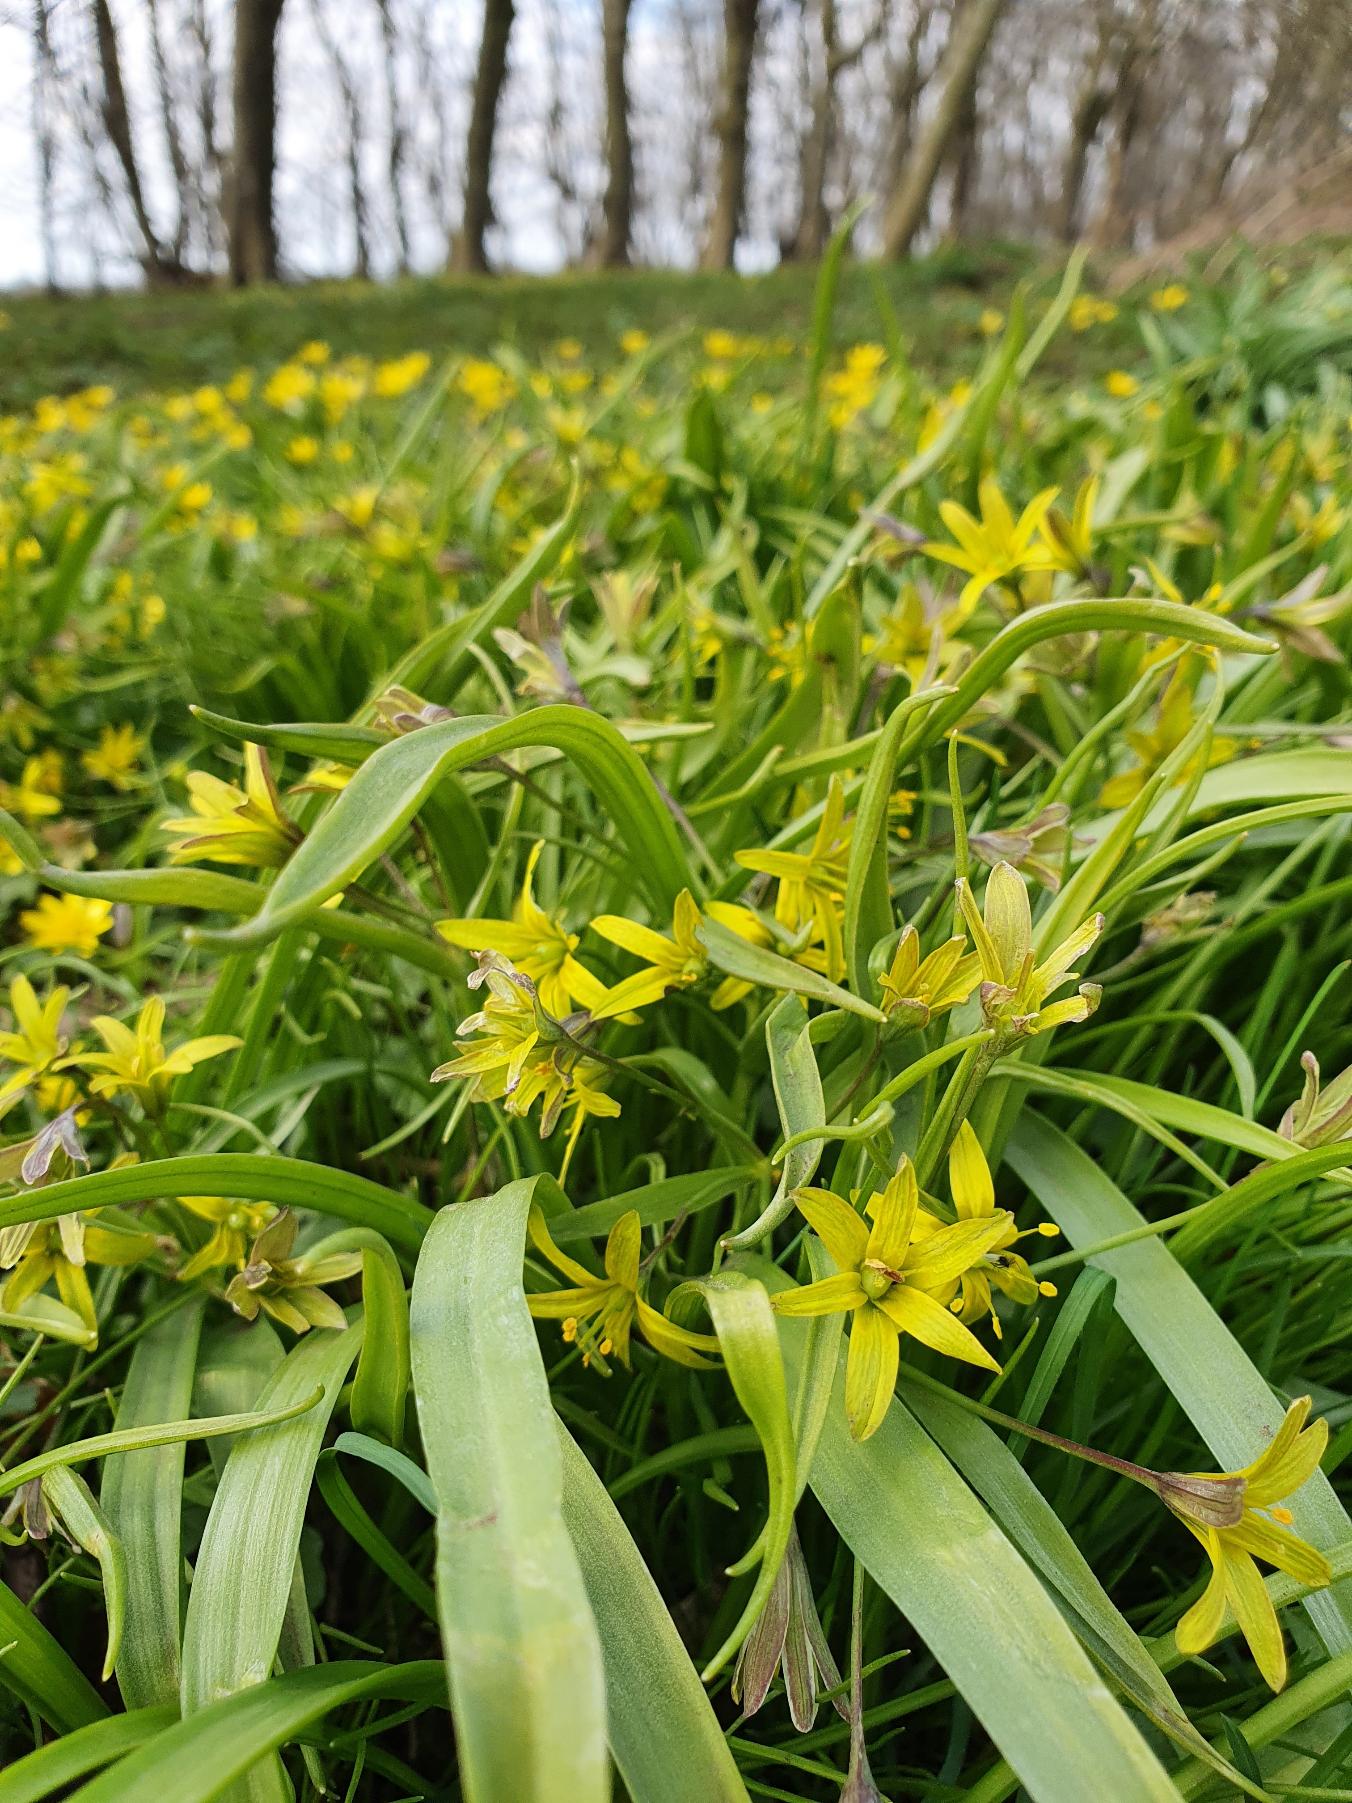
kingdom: Plantae
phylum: Tracheophyta
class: Liliopsida
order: Liliales
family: Liliaceae
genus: Gagea
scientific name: Gagea lutea
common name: Almindelig guldstjerne
